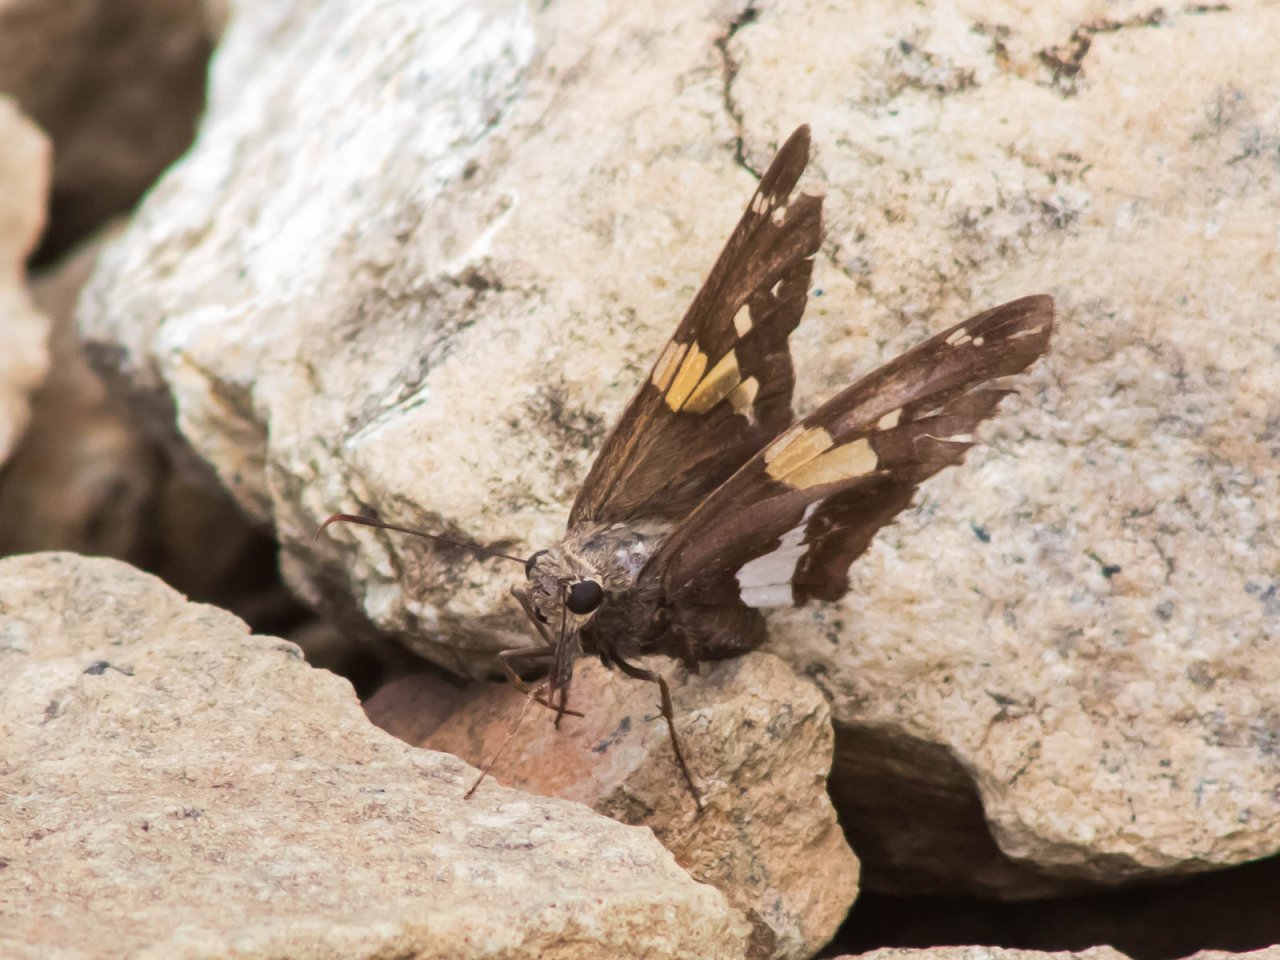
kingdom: Animalia
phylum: Arthropoda
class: Insecta
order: Lepidoptera
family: Hesperiidae
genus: Epargyreus
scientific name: Epargyreus clarus
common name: Silver-spotted Skipper
